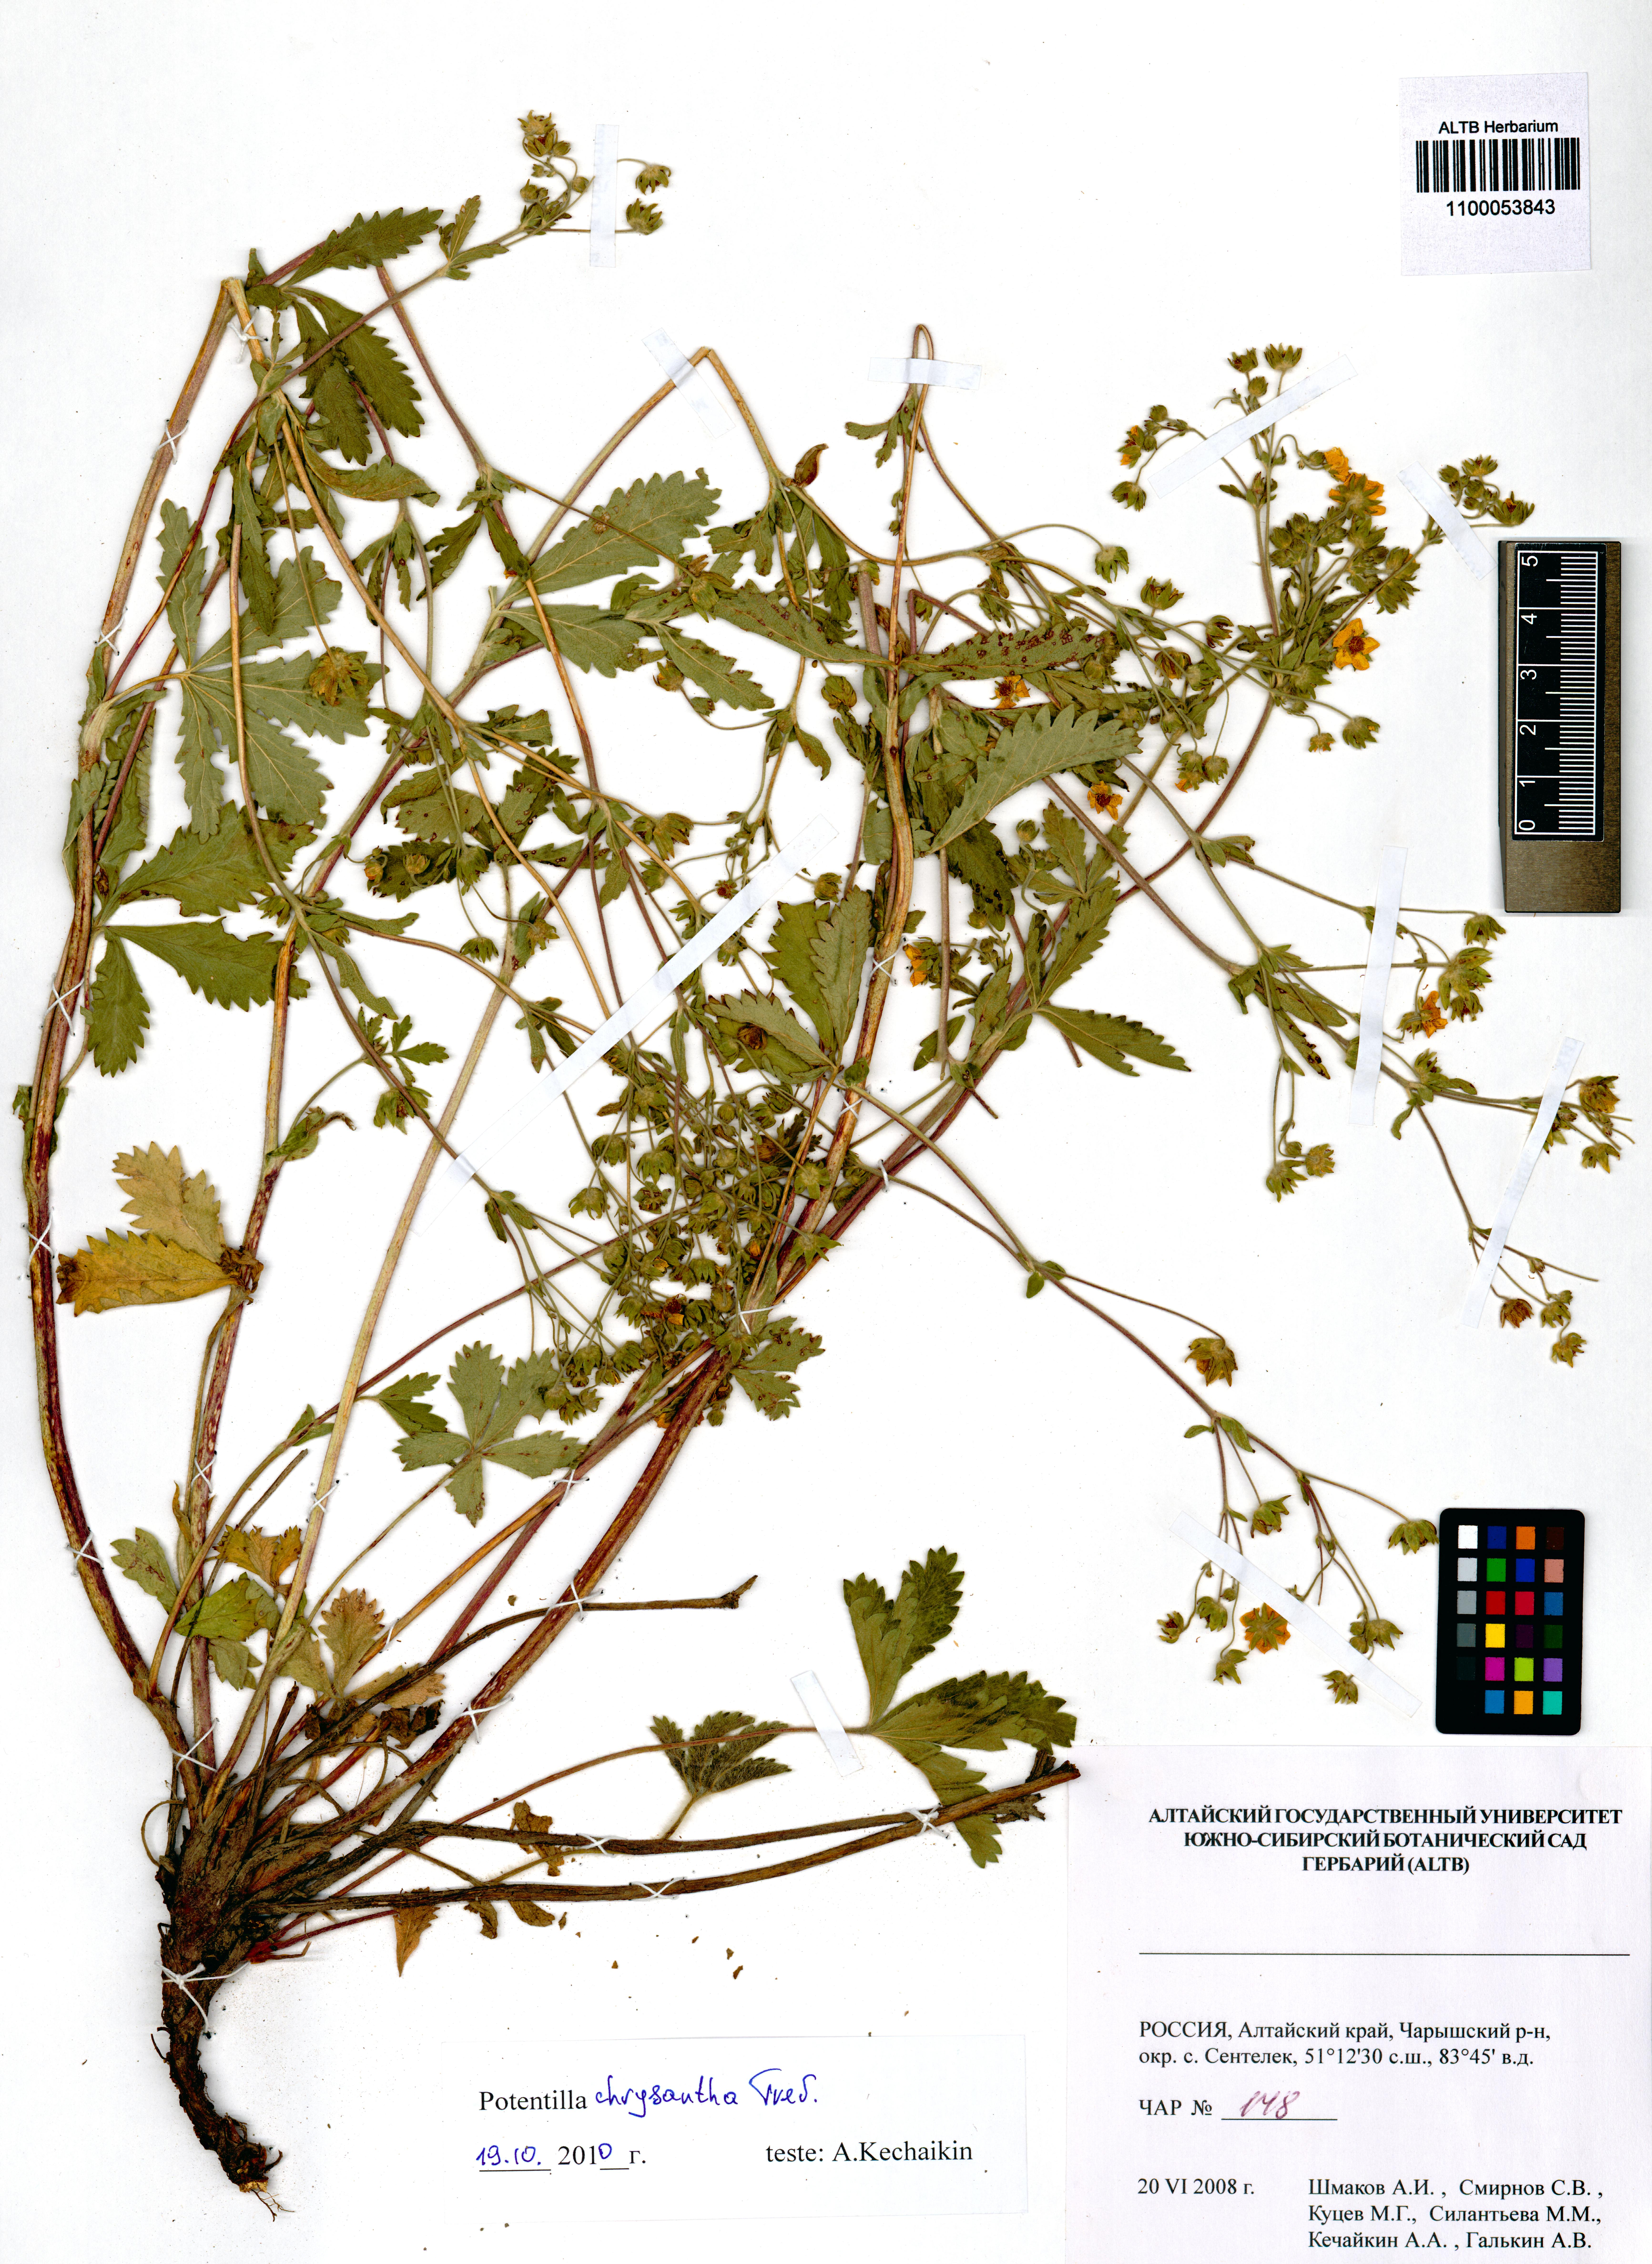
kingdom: Plantae
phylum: Tracheophyta
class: Magnoliopsida
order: Rosales
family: Rosaceae
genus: Potentilla
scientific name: Potentilla chrysantha
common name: Thuringian cinquefoil
